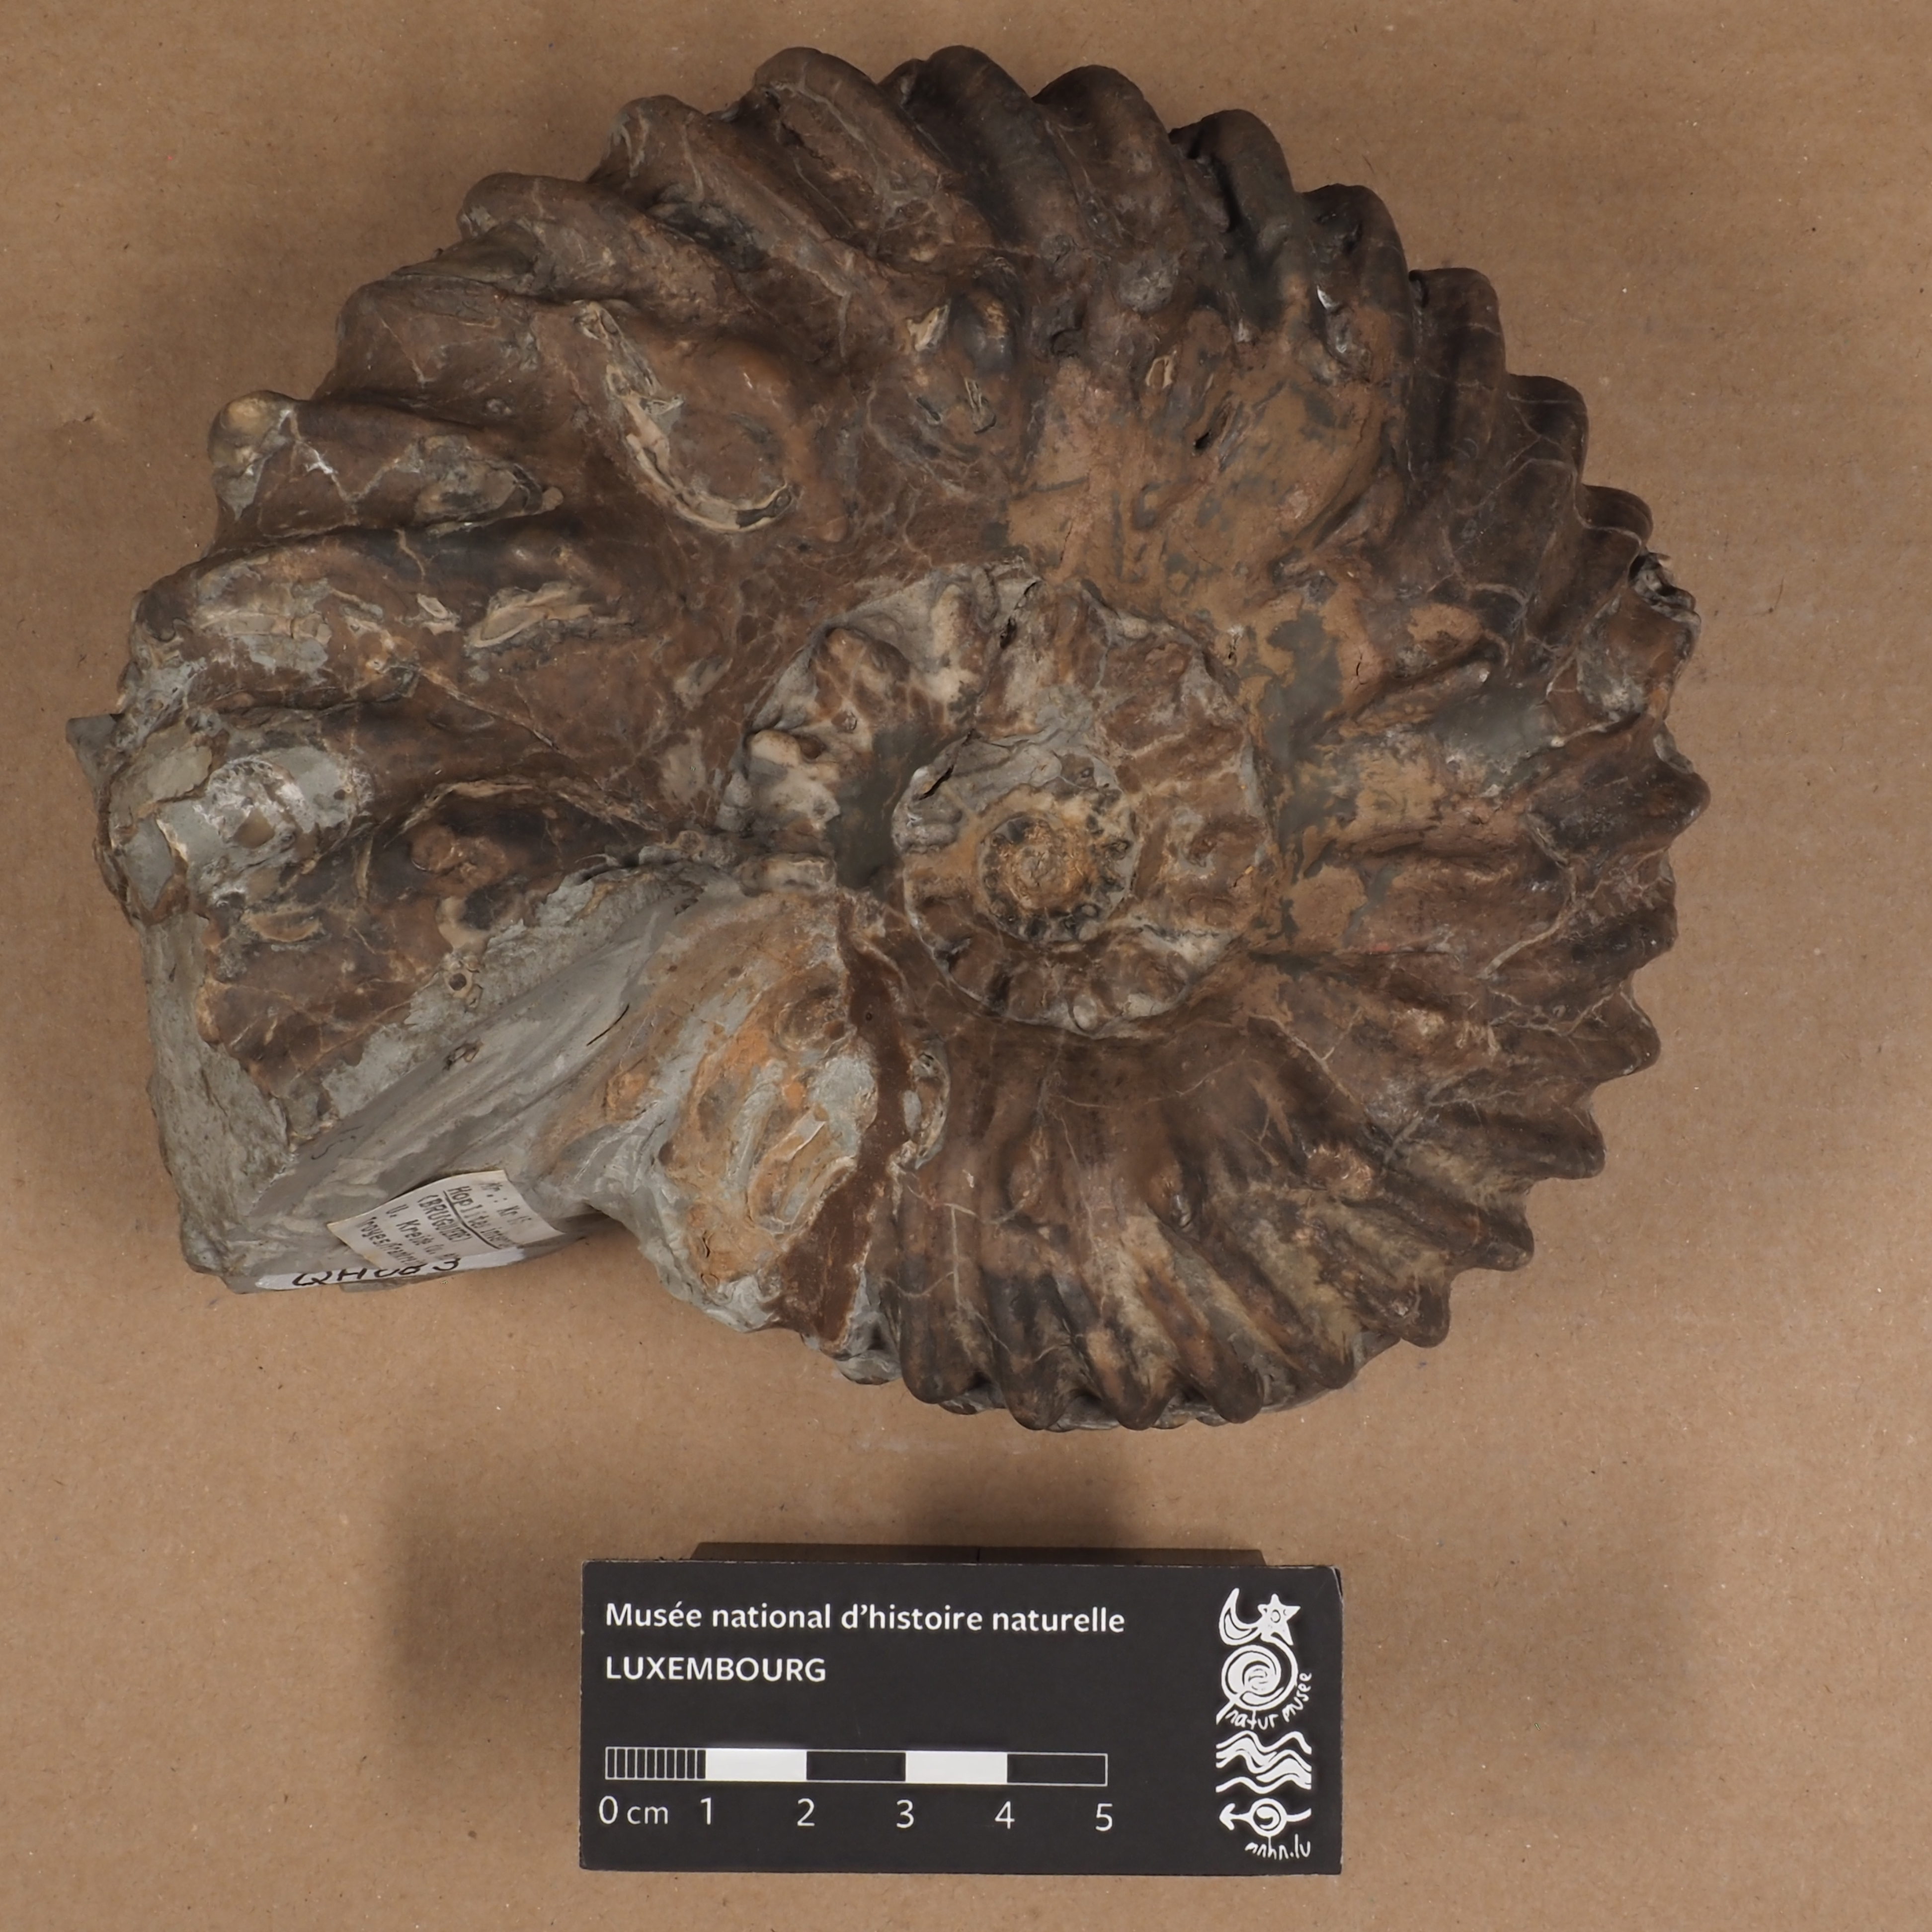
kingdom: Animalia
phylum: Arthropoda
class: Insecta
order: Coleoptera
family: Curculionidae
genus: Hoplites
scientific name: Hoplites interruptus
